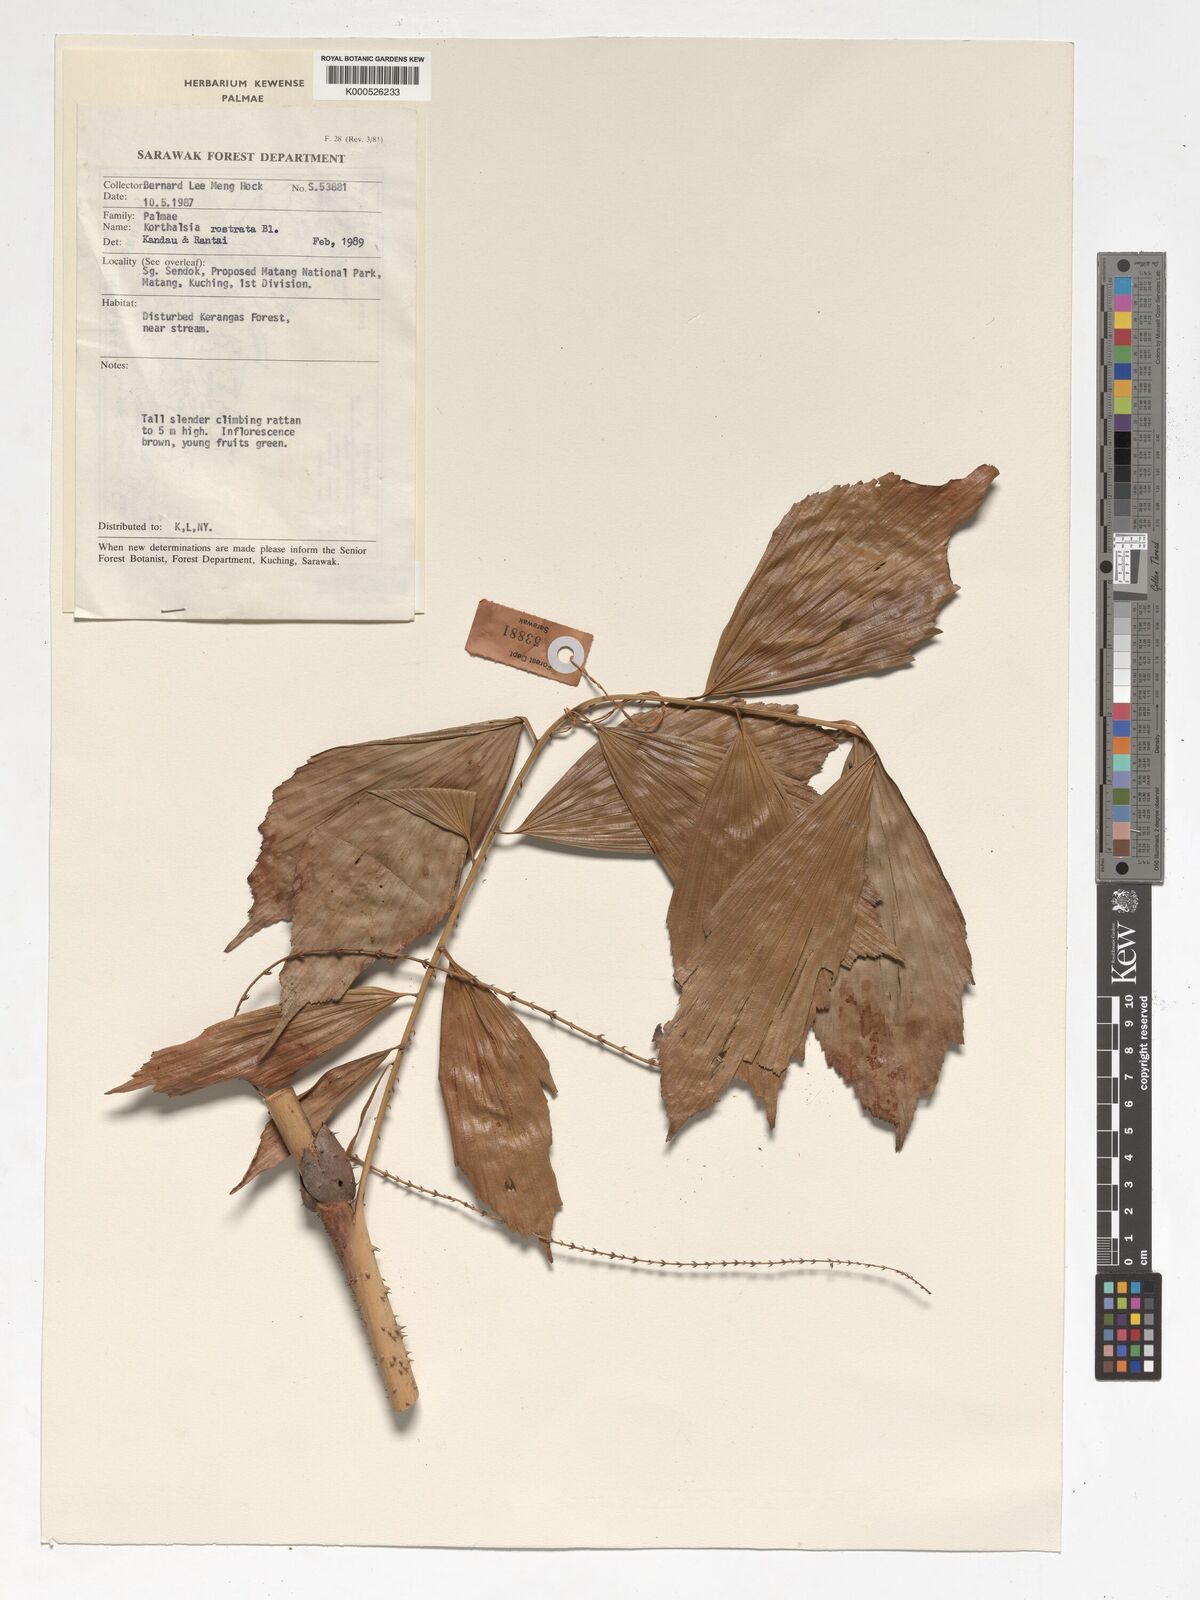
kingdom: Plantae
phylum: Tracheophyta
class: Liliopsida
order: Arecales
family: Arecaceae
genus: Korthalsia
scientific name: Korthalsia rostrata
